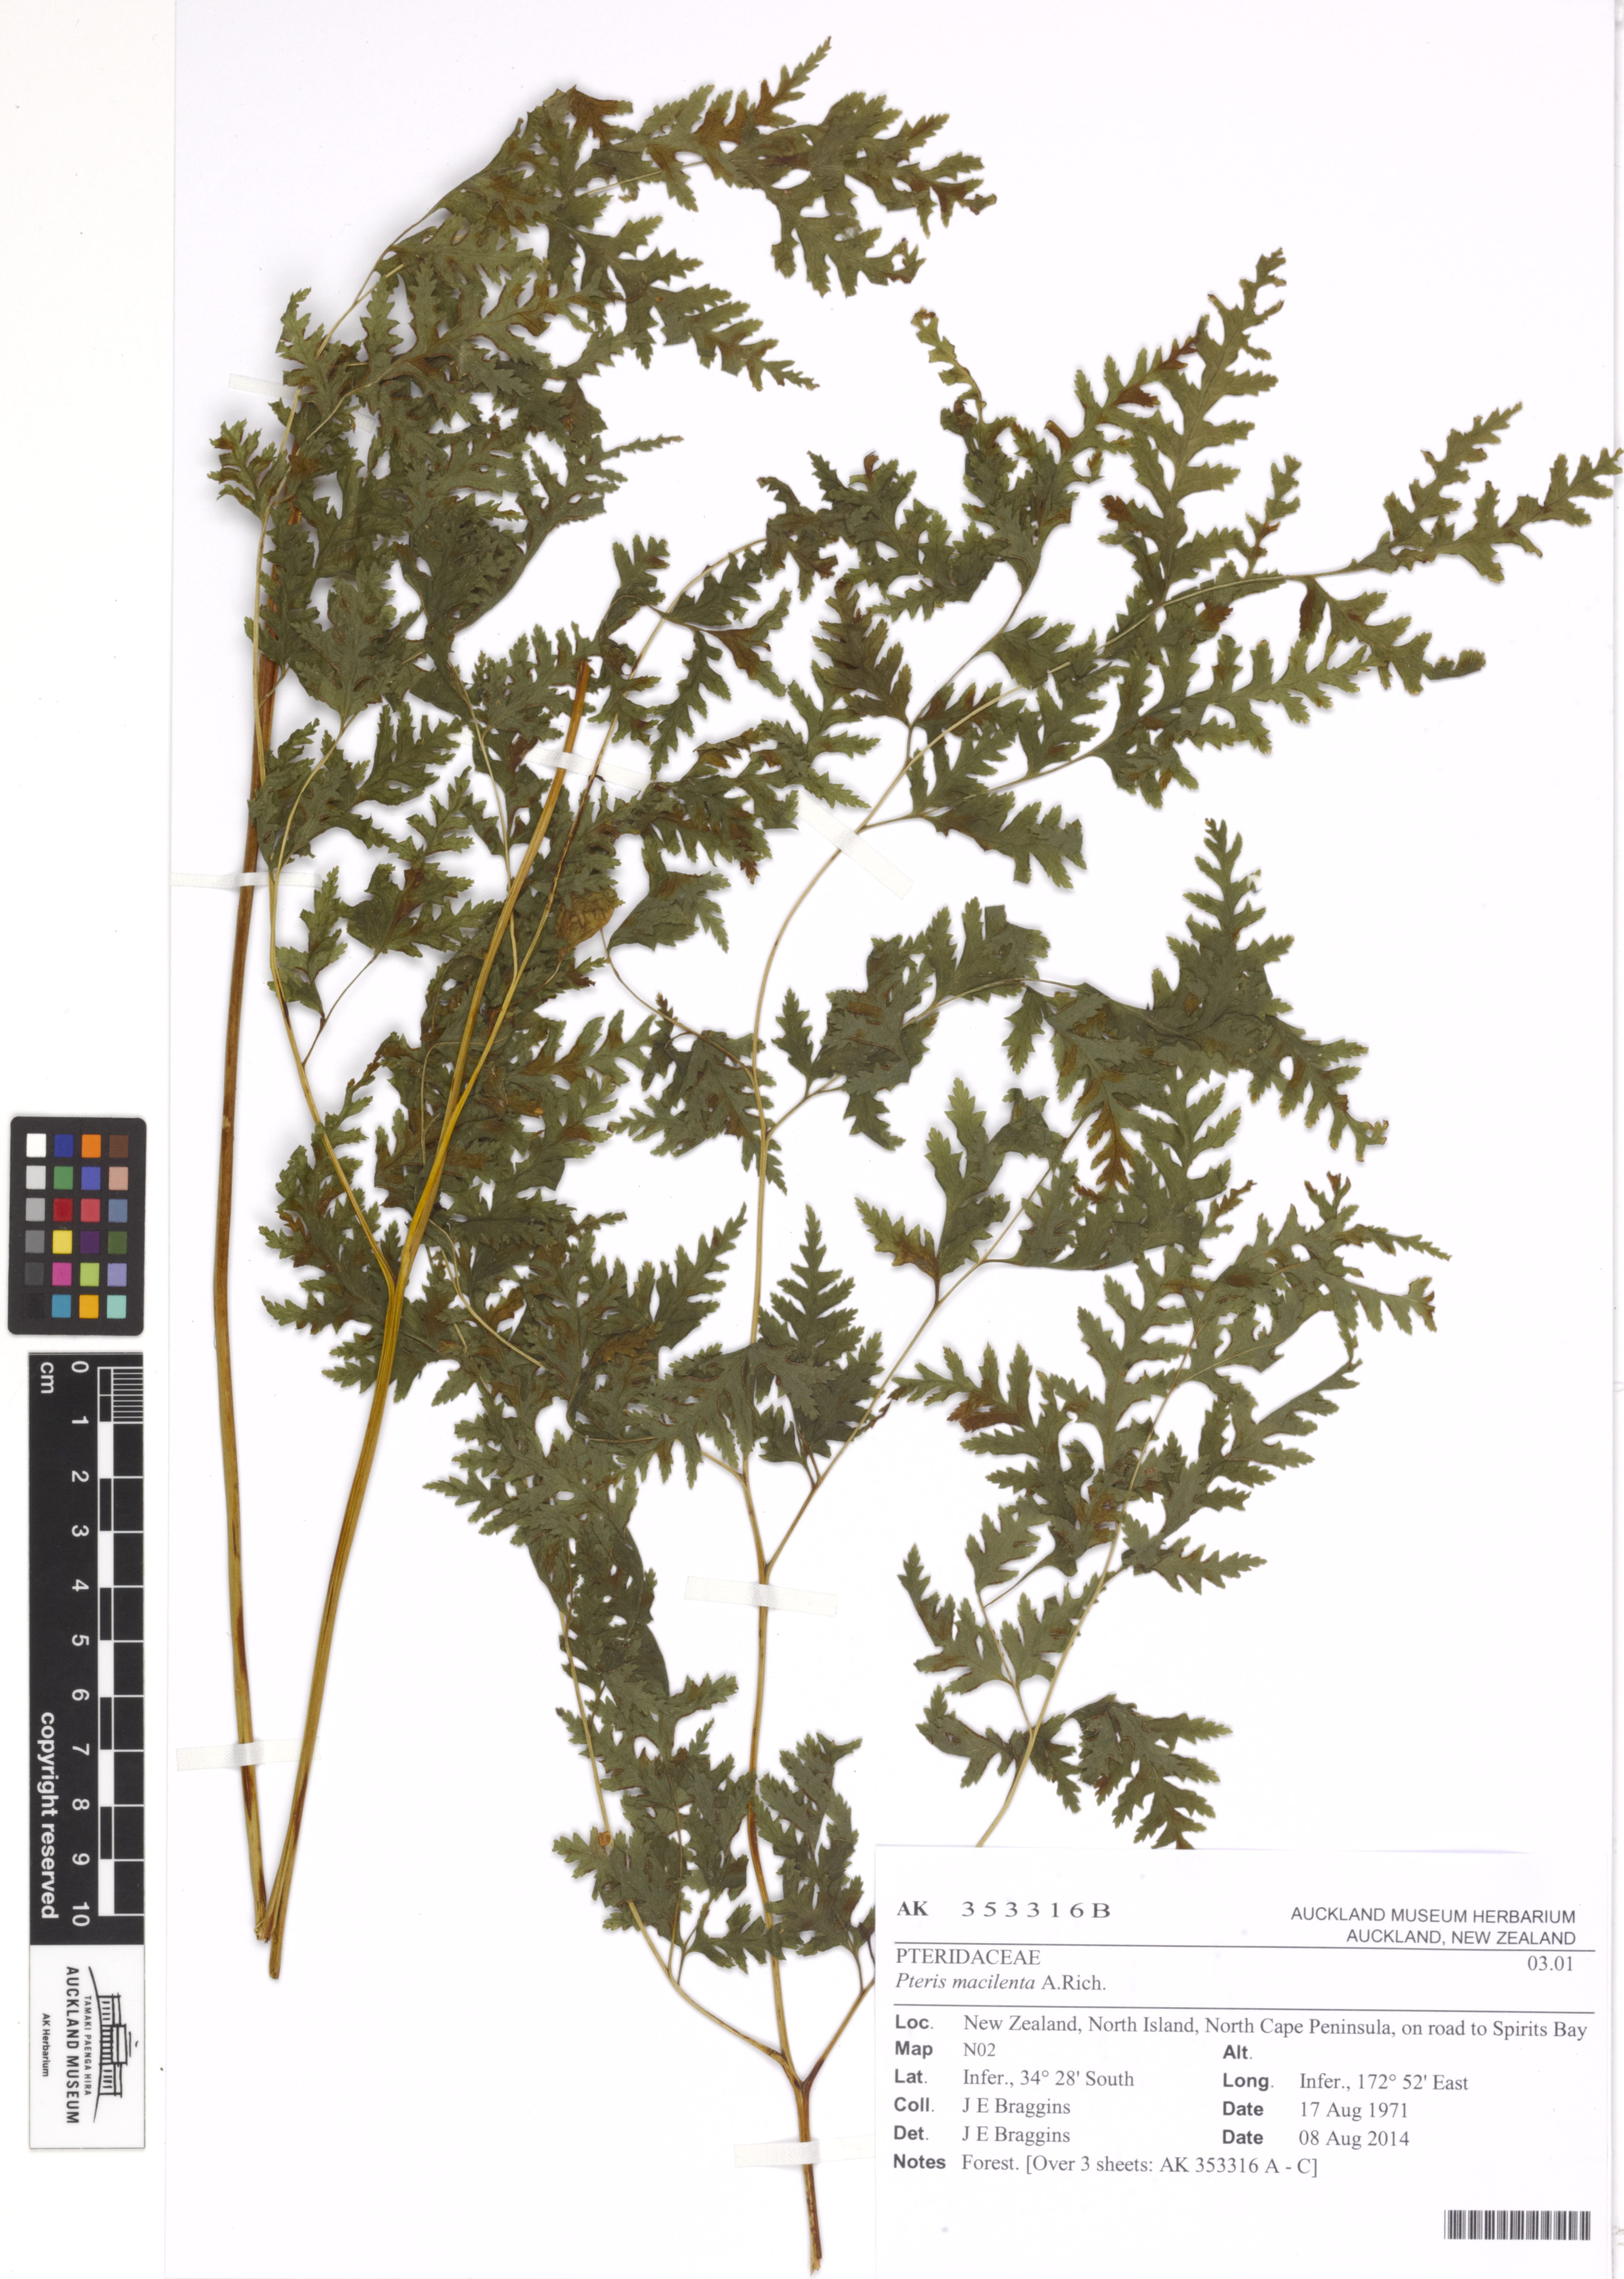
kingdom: Plantae
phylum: Tracheophyta
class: Polypodiopsida
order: Polypodiales
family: Pteridaceae
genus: Pteris
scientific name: Pteris macilenta
